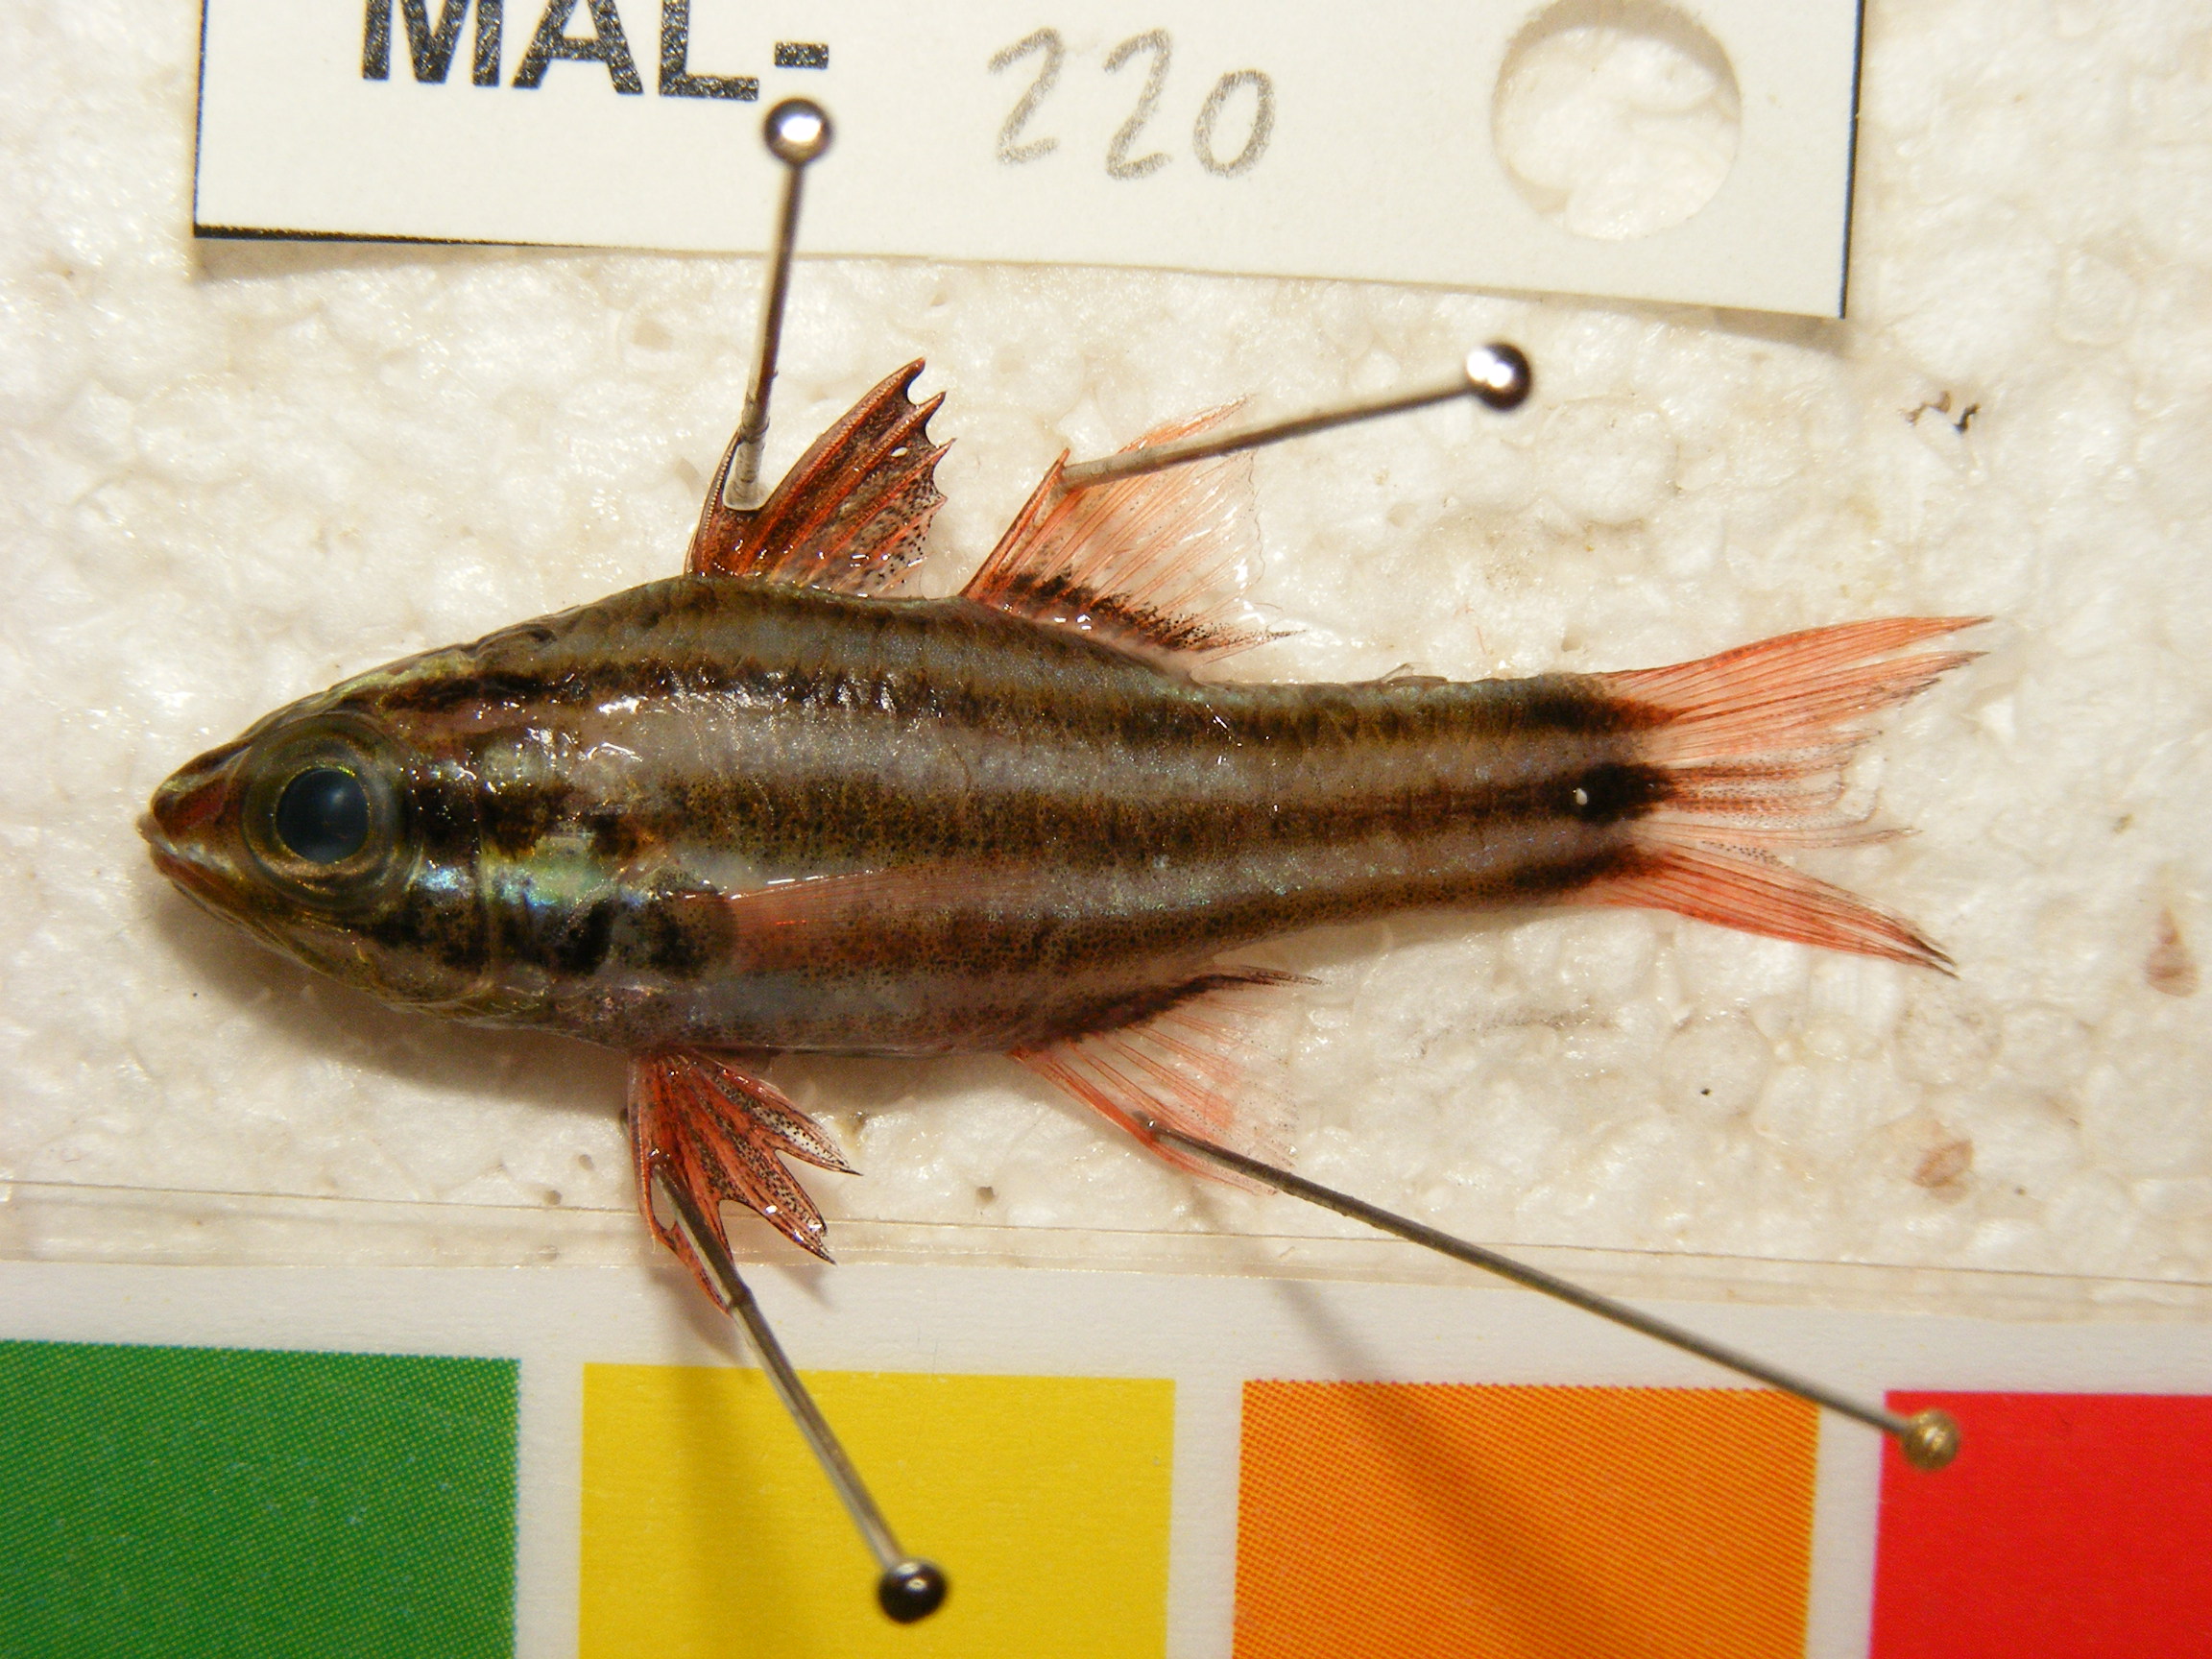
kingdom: Animalia
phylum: Chordata
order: Perciformes
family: Apogonidae
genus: Ostorhinchus
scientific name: Ostorhinchus novemfasciatus
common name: Seven-striped cardinalfish
